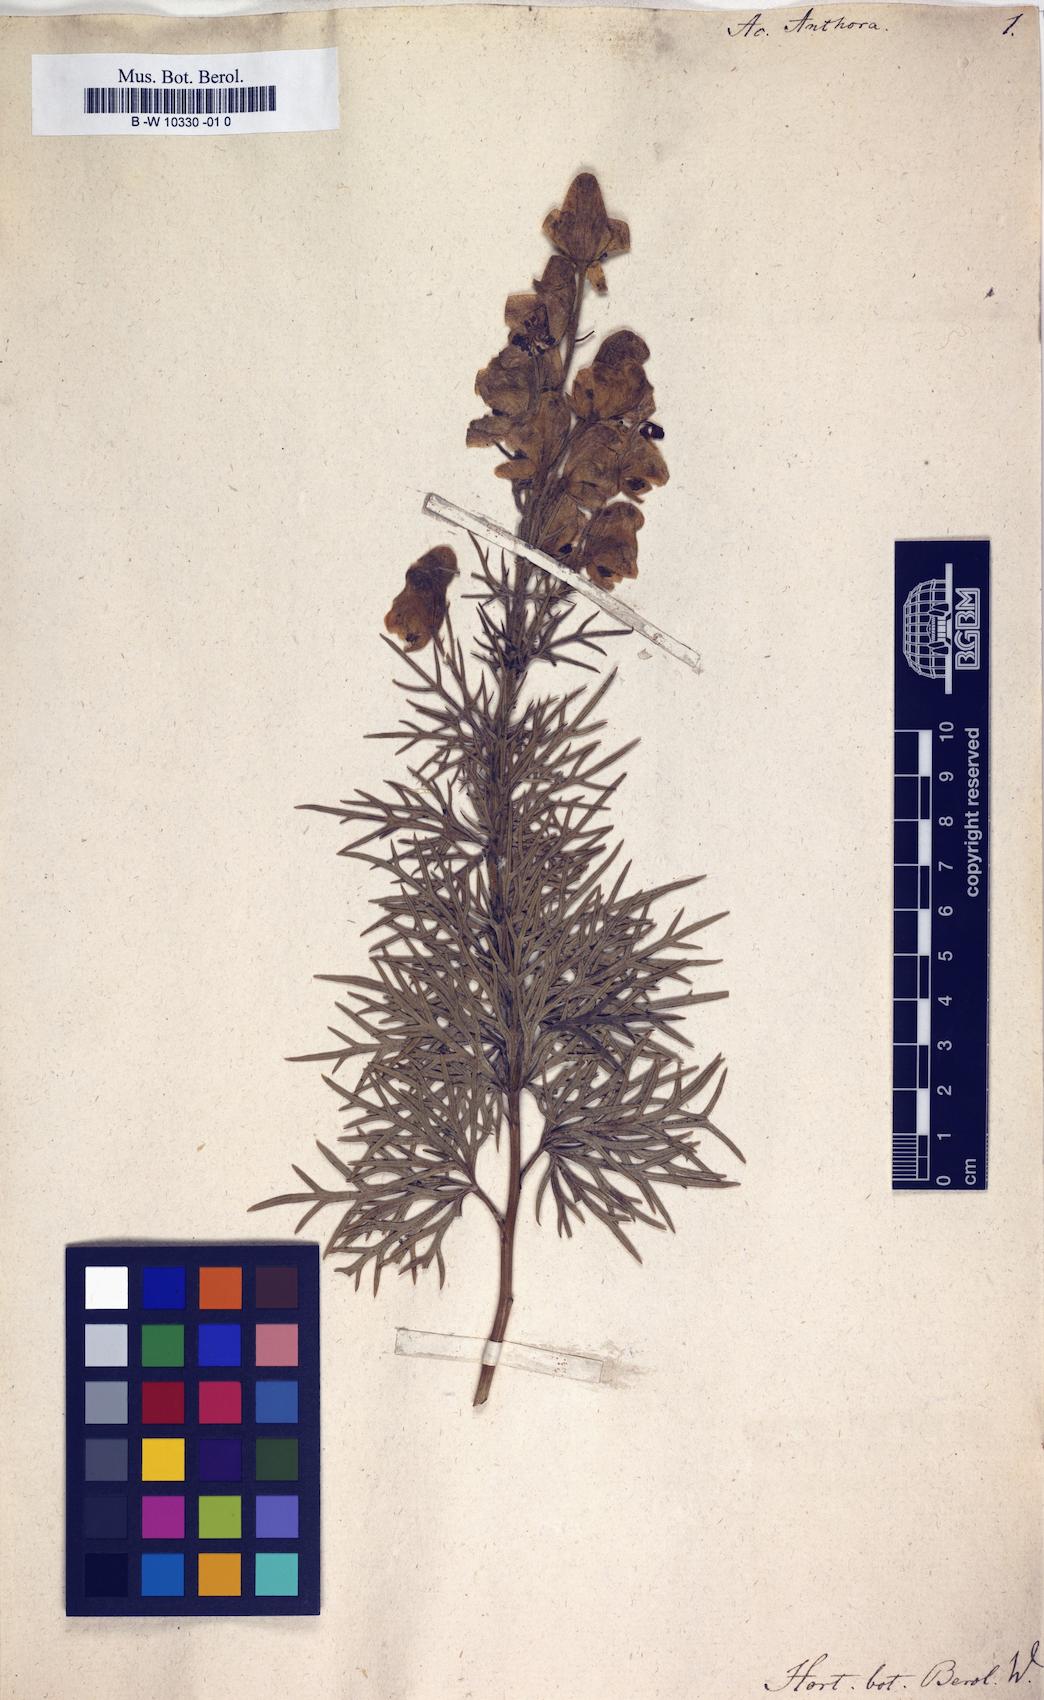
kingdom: Plantae
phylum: Tracheophyta
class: Magnoliopsida
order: Ranunculales
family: Ranunculaceae
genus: Aconitum
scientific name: Aconitum anthora
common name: Yellow monkshood
